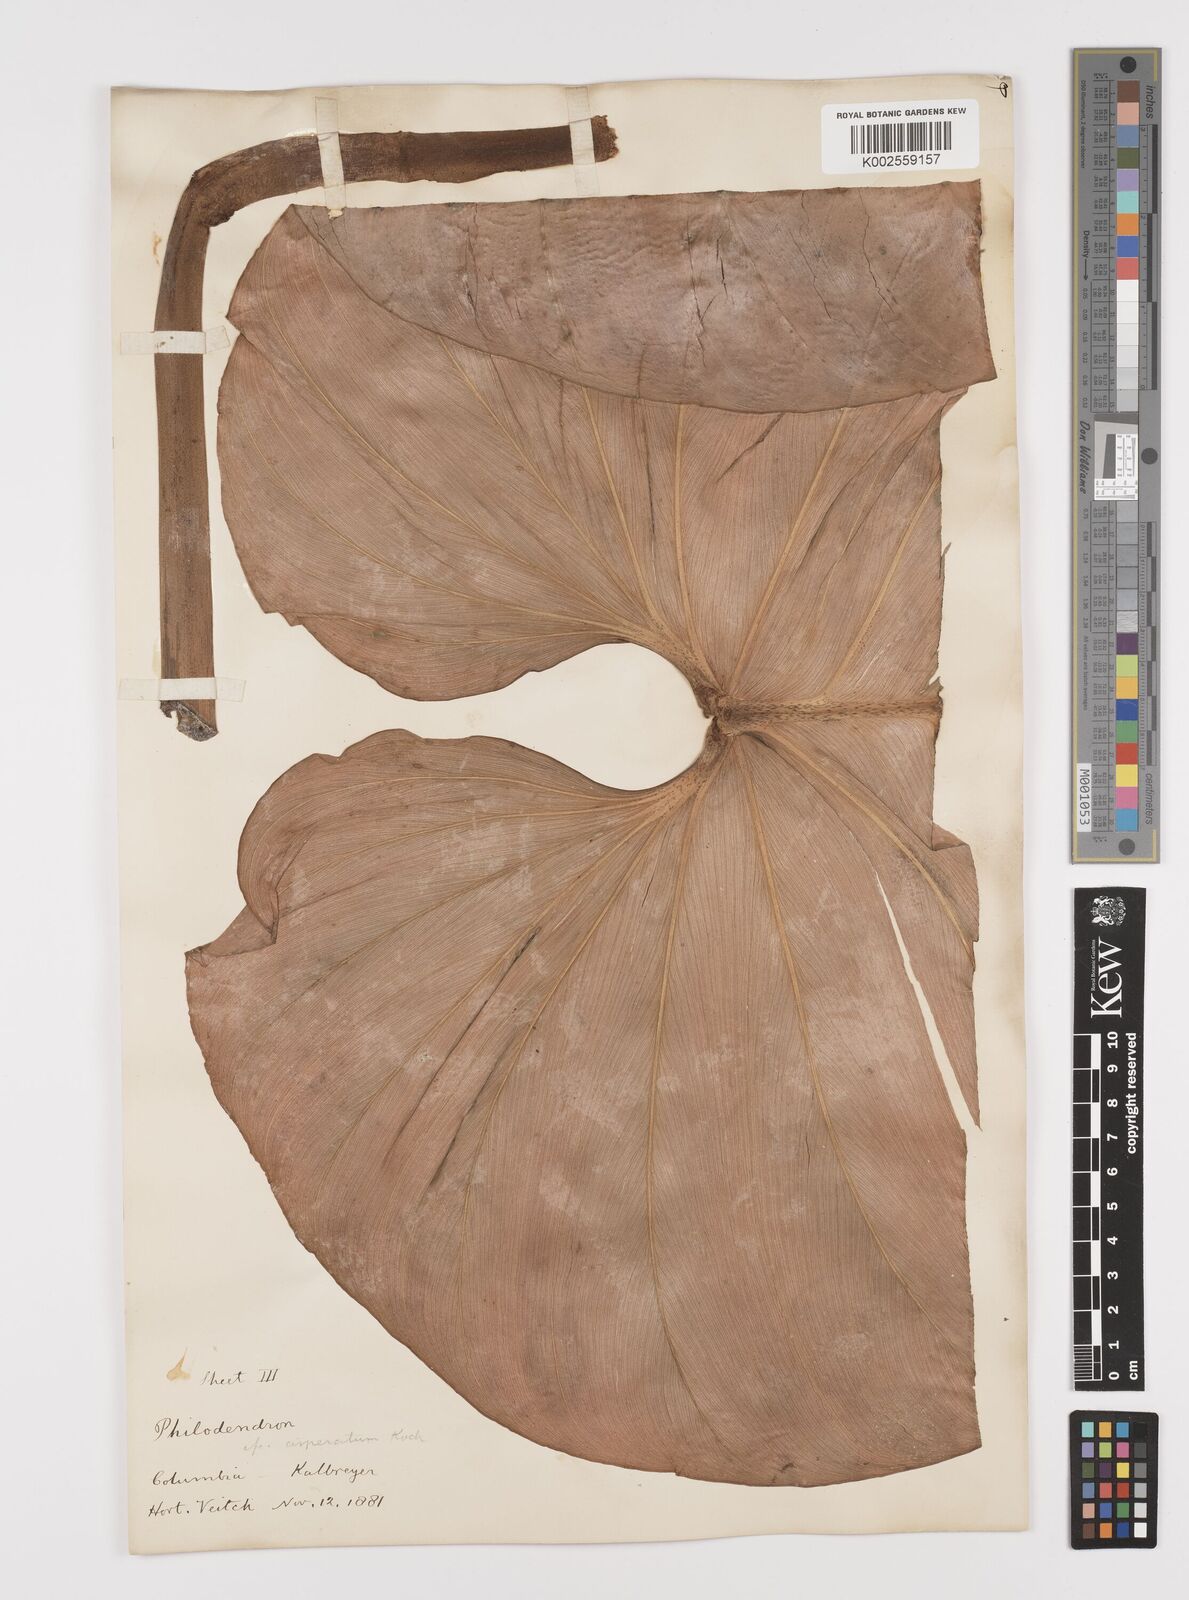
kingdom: Plantae
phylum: Tracheophyta
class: Liliopsida
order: Alismatales
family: Araceae
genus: Philodendron
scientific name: Philodendron ornatum
